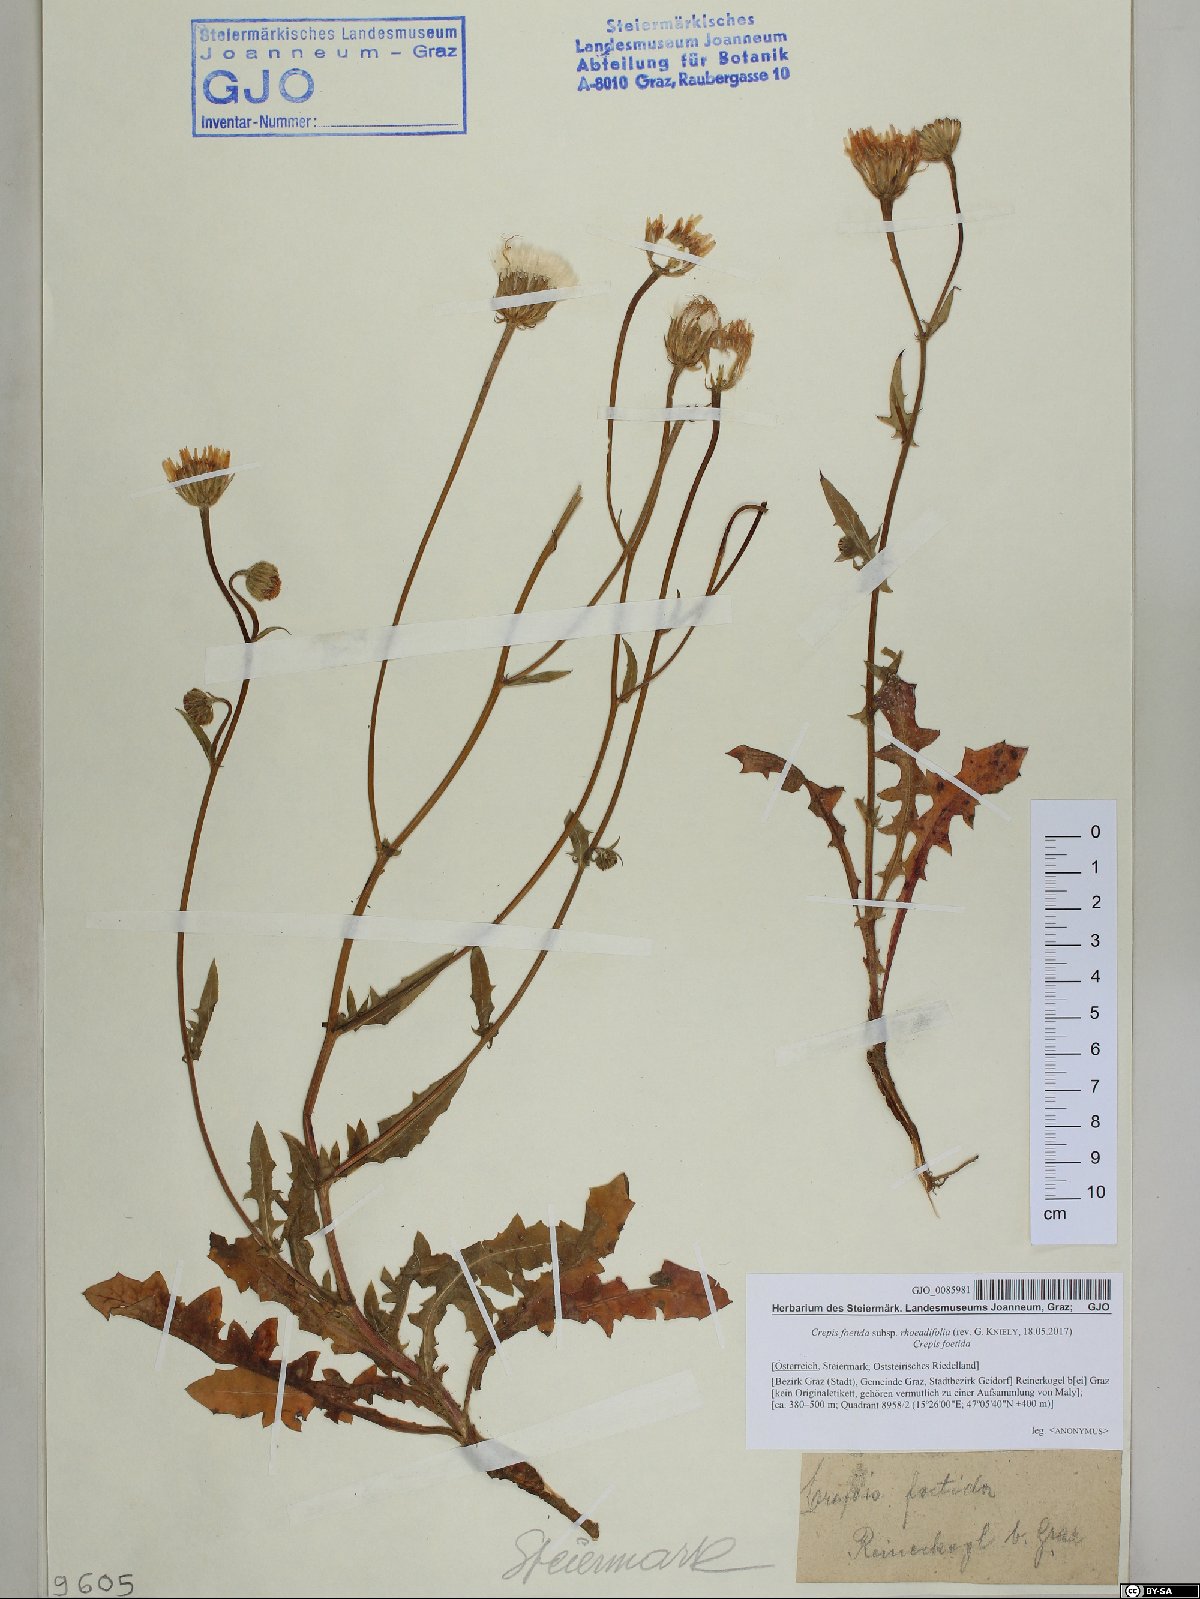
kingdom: Plantae
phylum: Tracheophyta
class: Magnoliopsida
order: Asterales
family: Asteraceae
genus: Crepis
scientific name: Crepis foetida
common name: Stinking hawk's-beard
